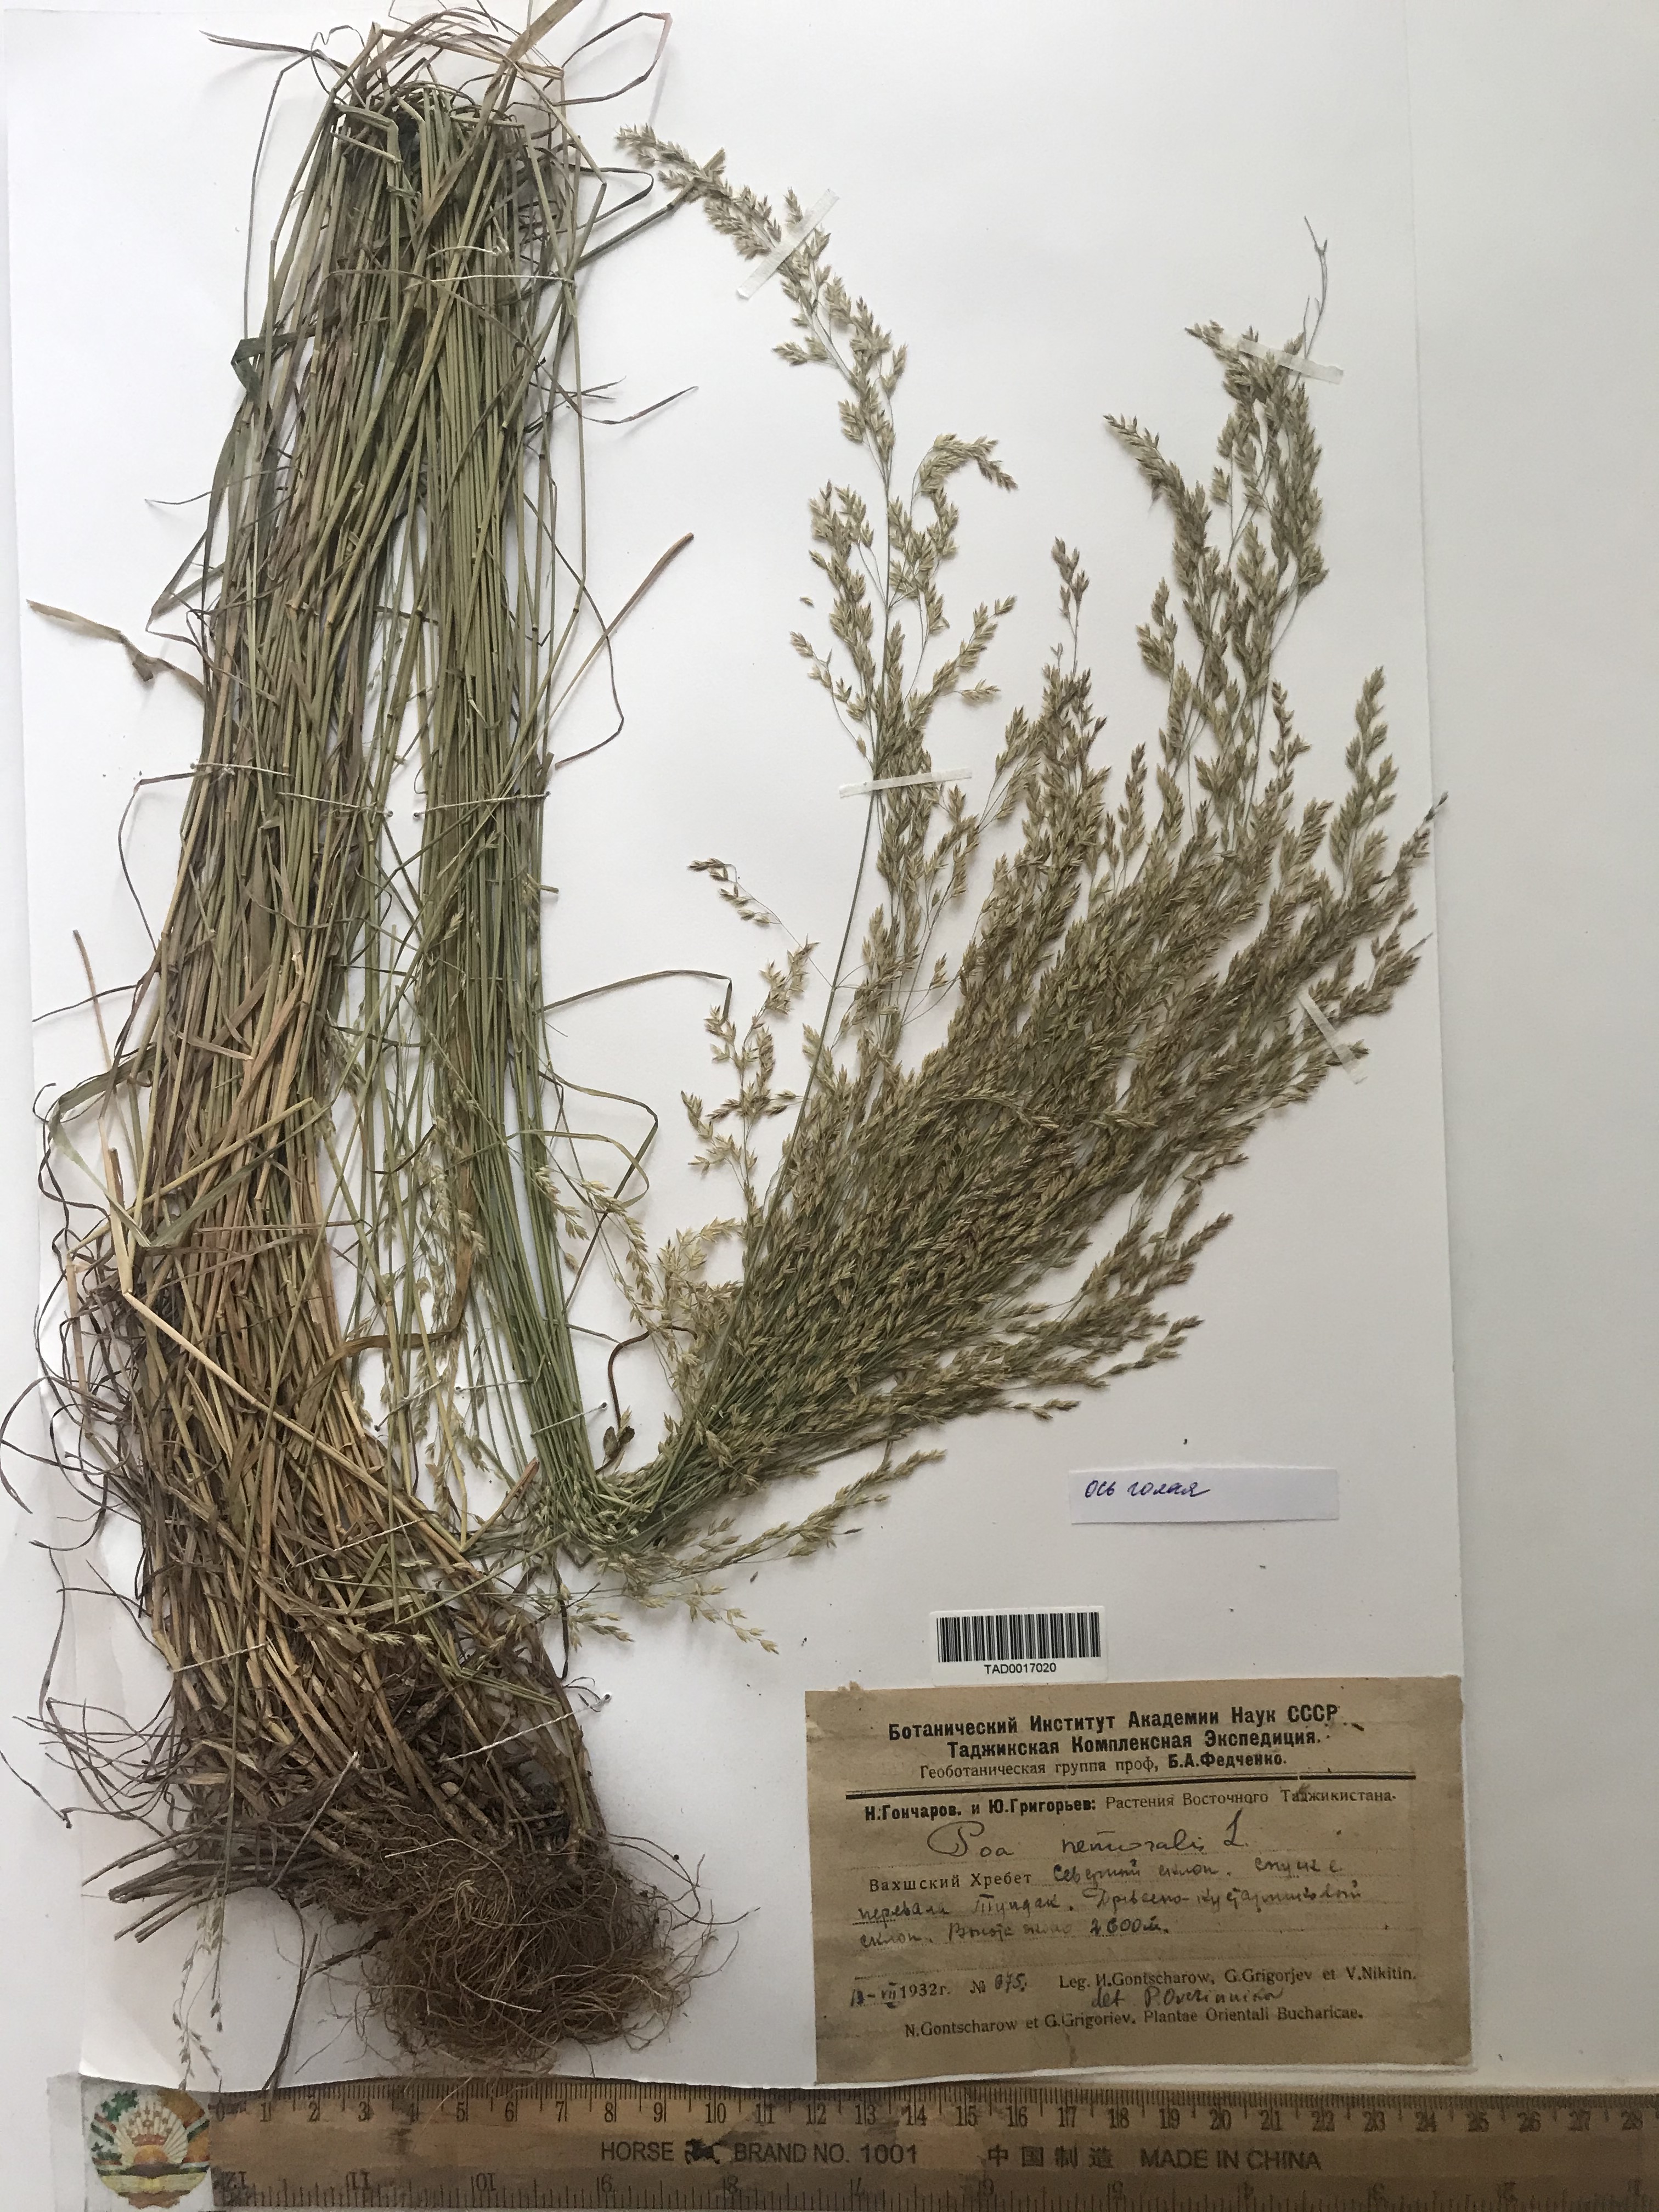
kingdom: Plantae
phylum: Tracheophyta
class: Liliopsida
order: Poales
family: Poaceae
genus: Poa
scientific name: Poa nemoralis
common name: Wood bluegrass
